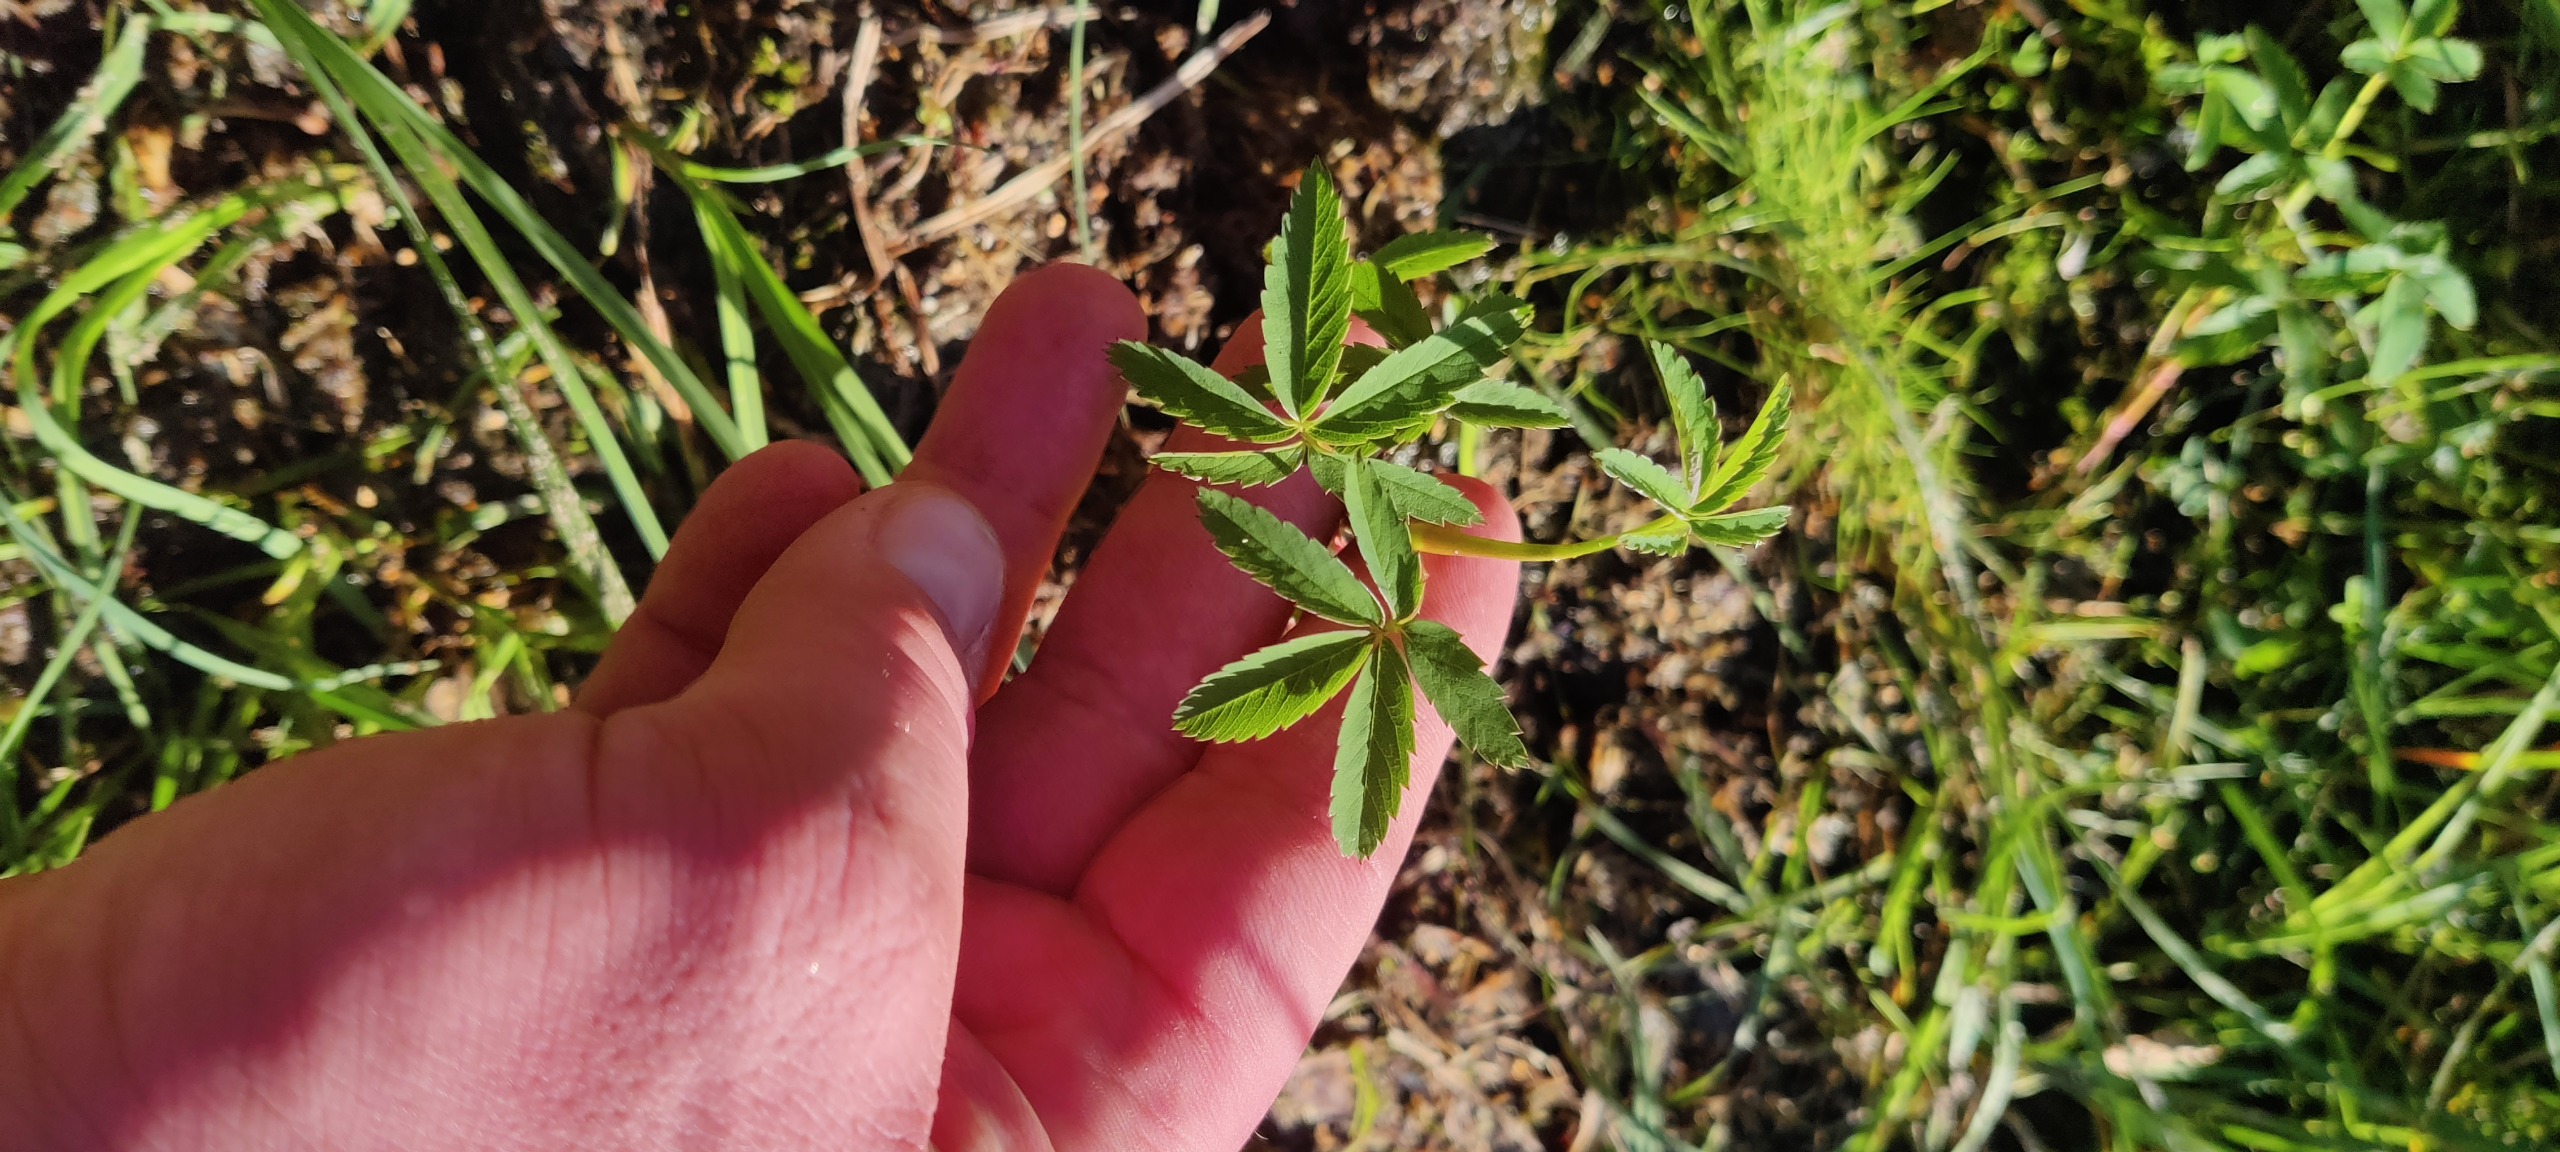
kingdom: Plantae
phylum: Tracheophyta
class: Magnoliopsida
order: Rosales
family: Rosaceae
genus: Comarum
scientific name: Comarum palustre
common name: Kragefod
